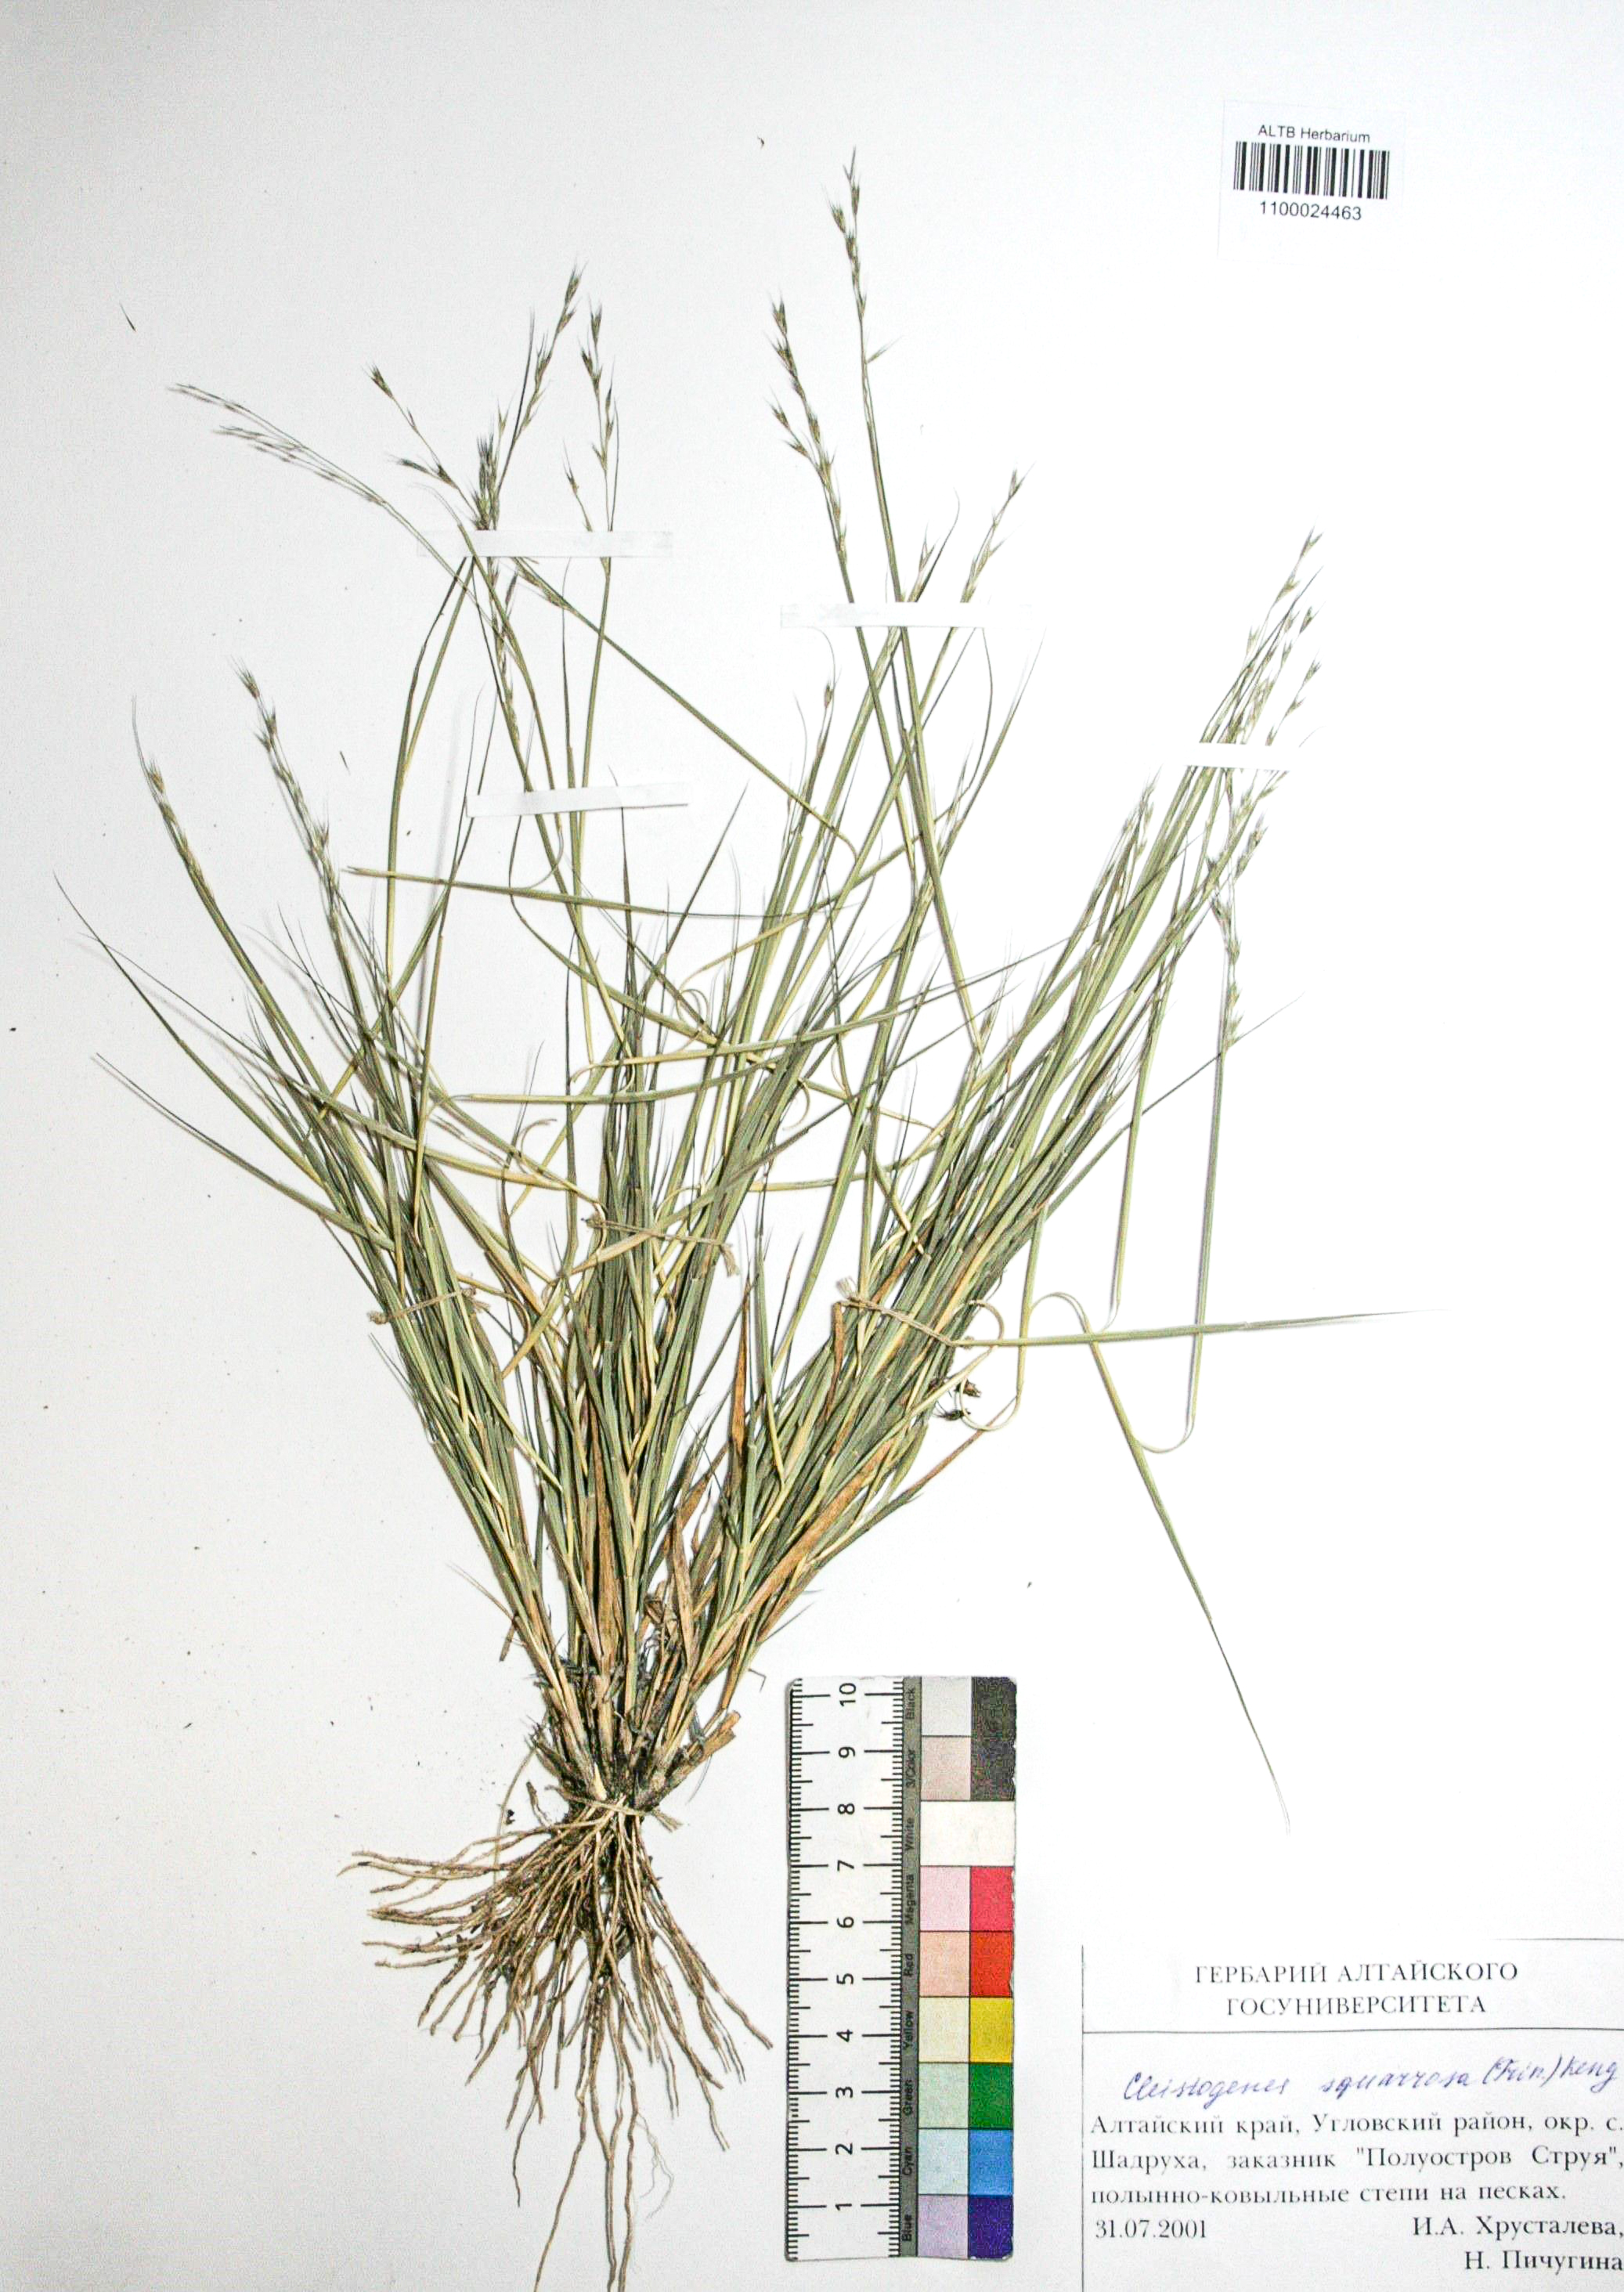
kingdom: Plantae
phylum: Tracheophyta
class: Liliopsida
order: Poales
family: Poaceae
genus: Cleistogenes
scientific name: Cleistogenes squarrosa
